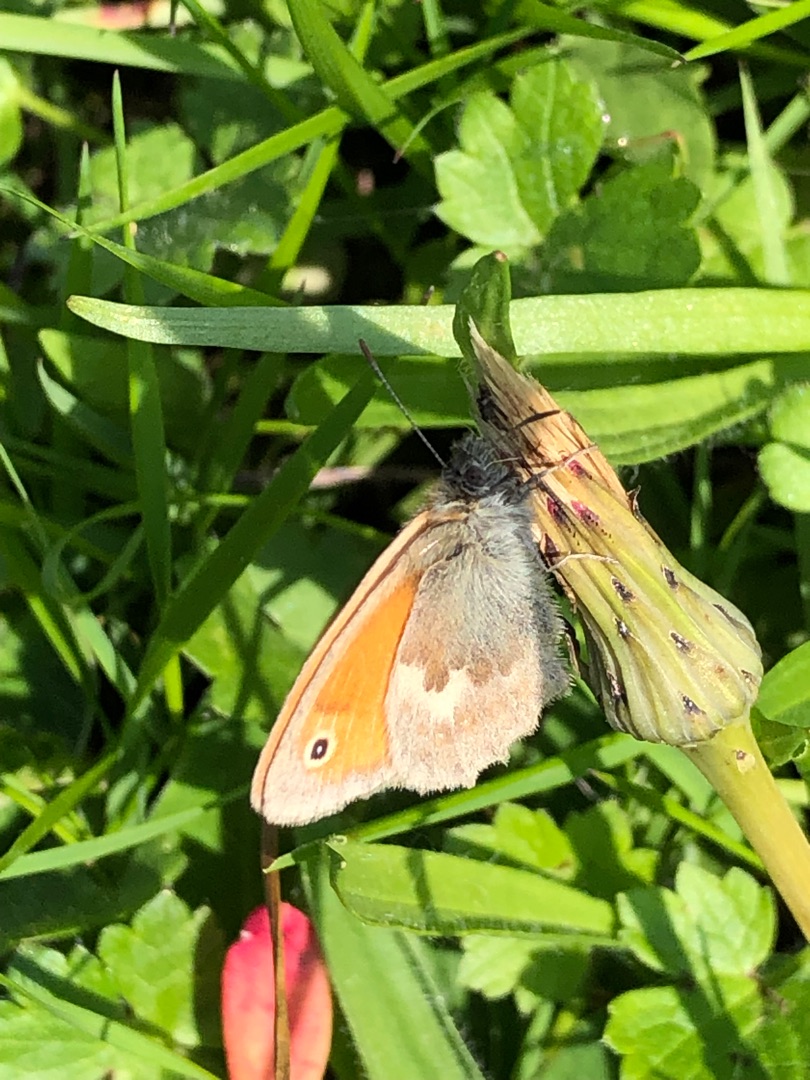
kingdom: Animalia
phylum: Arthropoda
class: Insecta
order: Lepidoptera
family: Nymphalidae
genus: Coenonympha
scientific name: Coenonympha pamphilus
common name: Okkergul randøje
